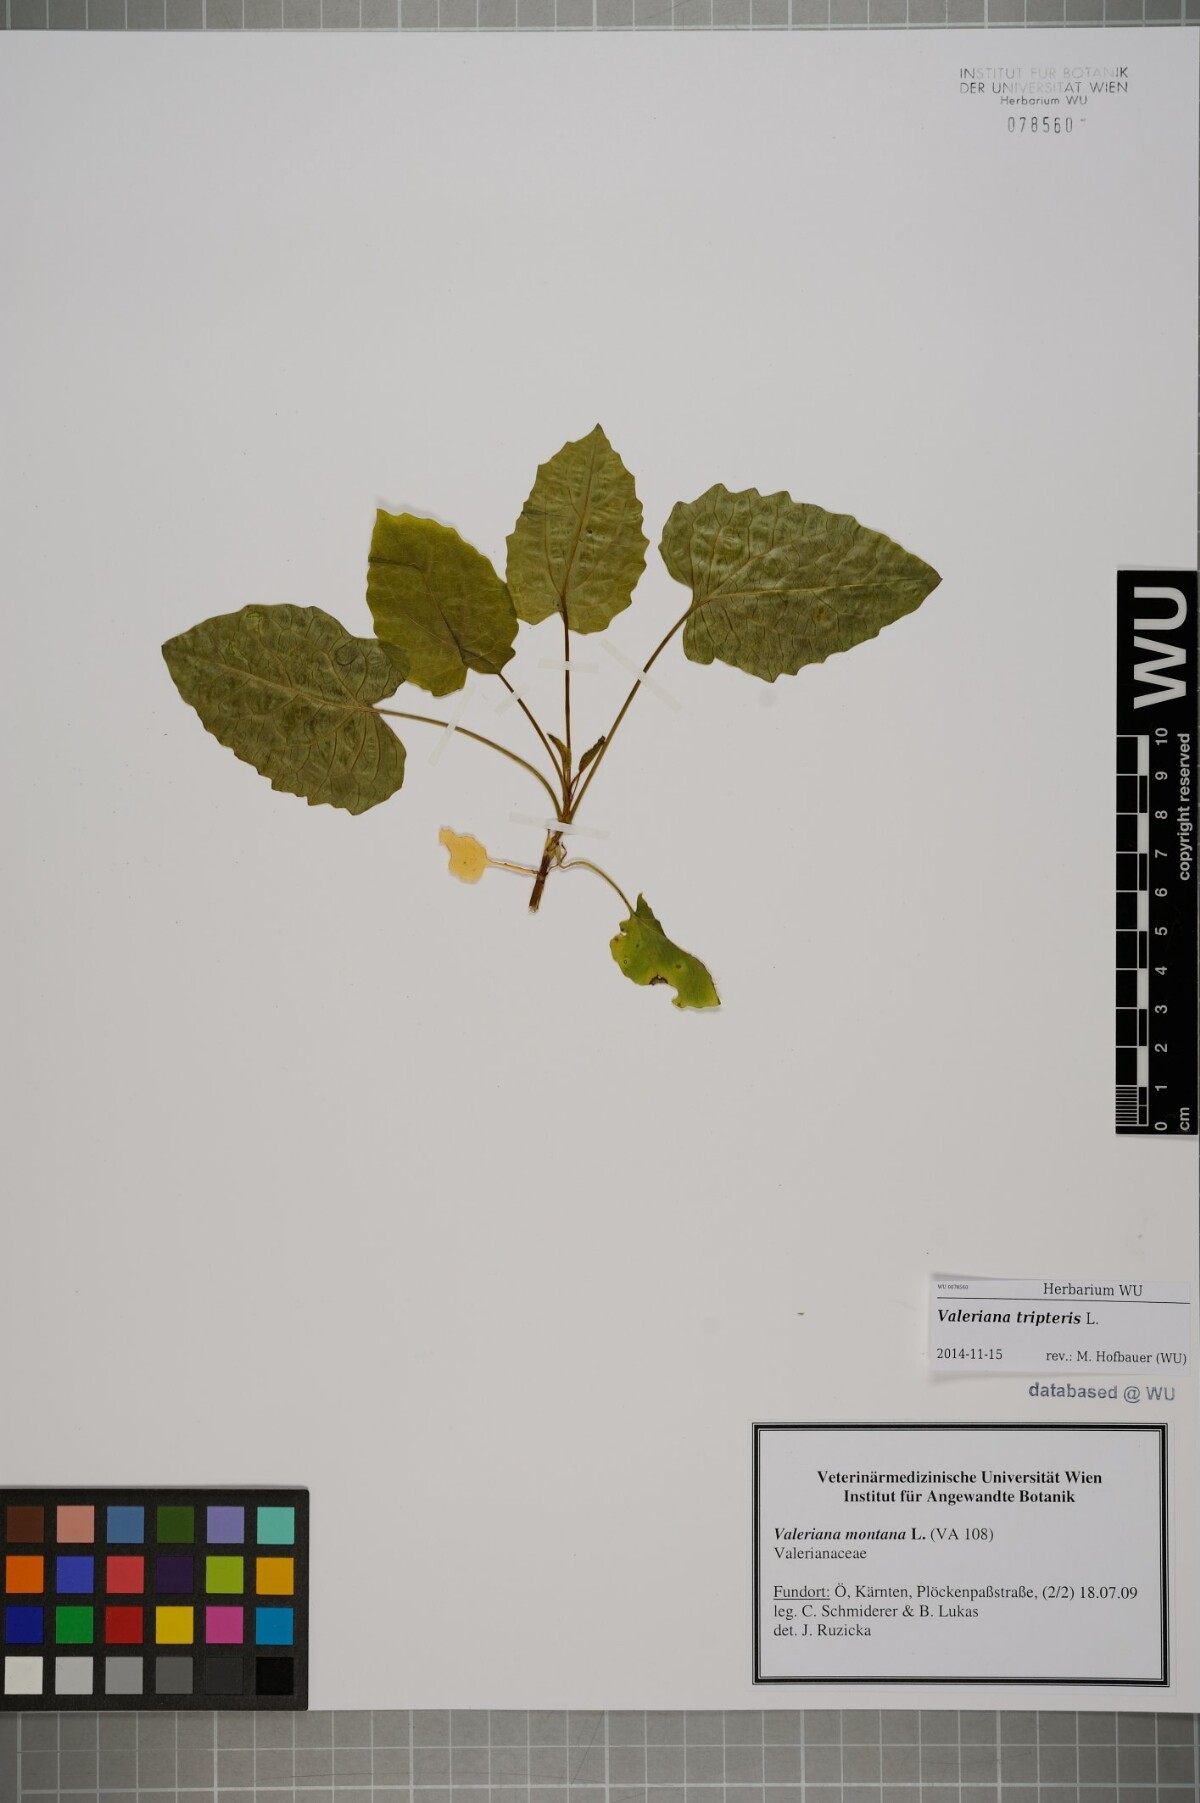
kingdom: Plantae
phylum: Tracheophyta
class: Magnoliopsida
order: Dipsacales
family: Caprifoliaceae
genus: Valeriana
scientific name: Valeriana tripteris
